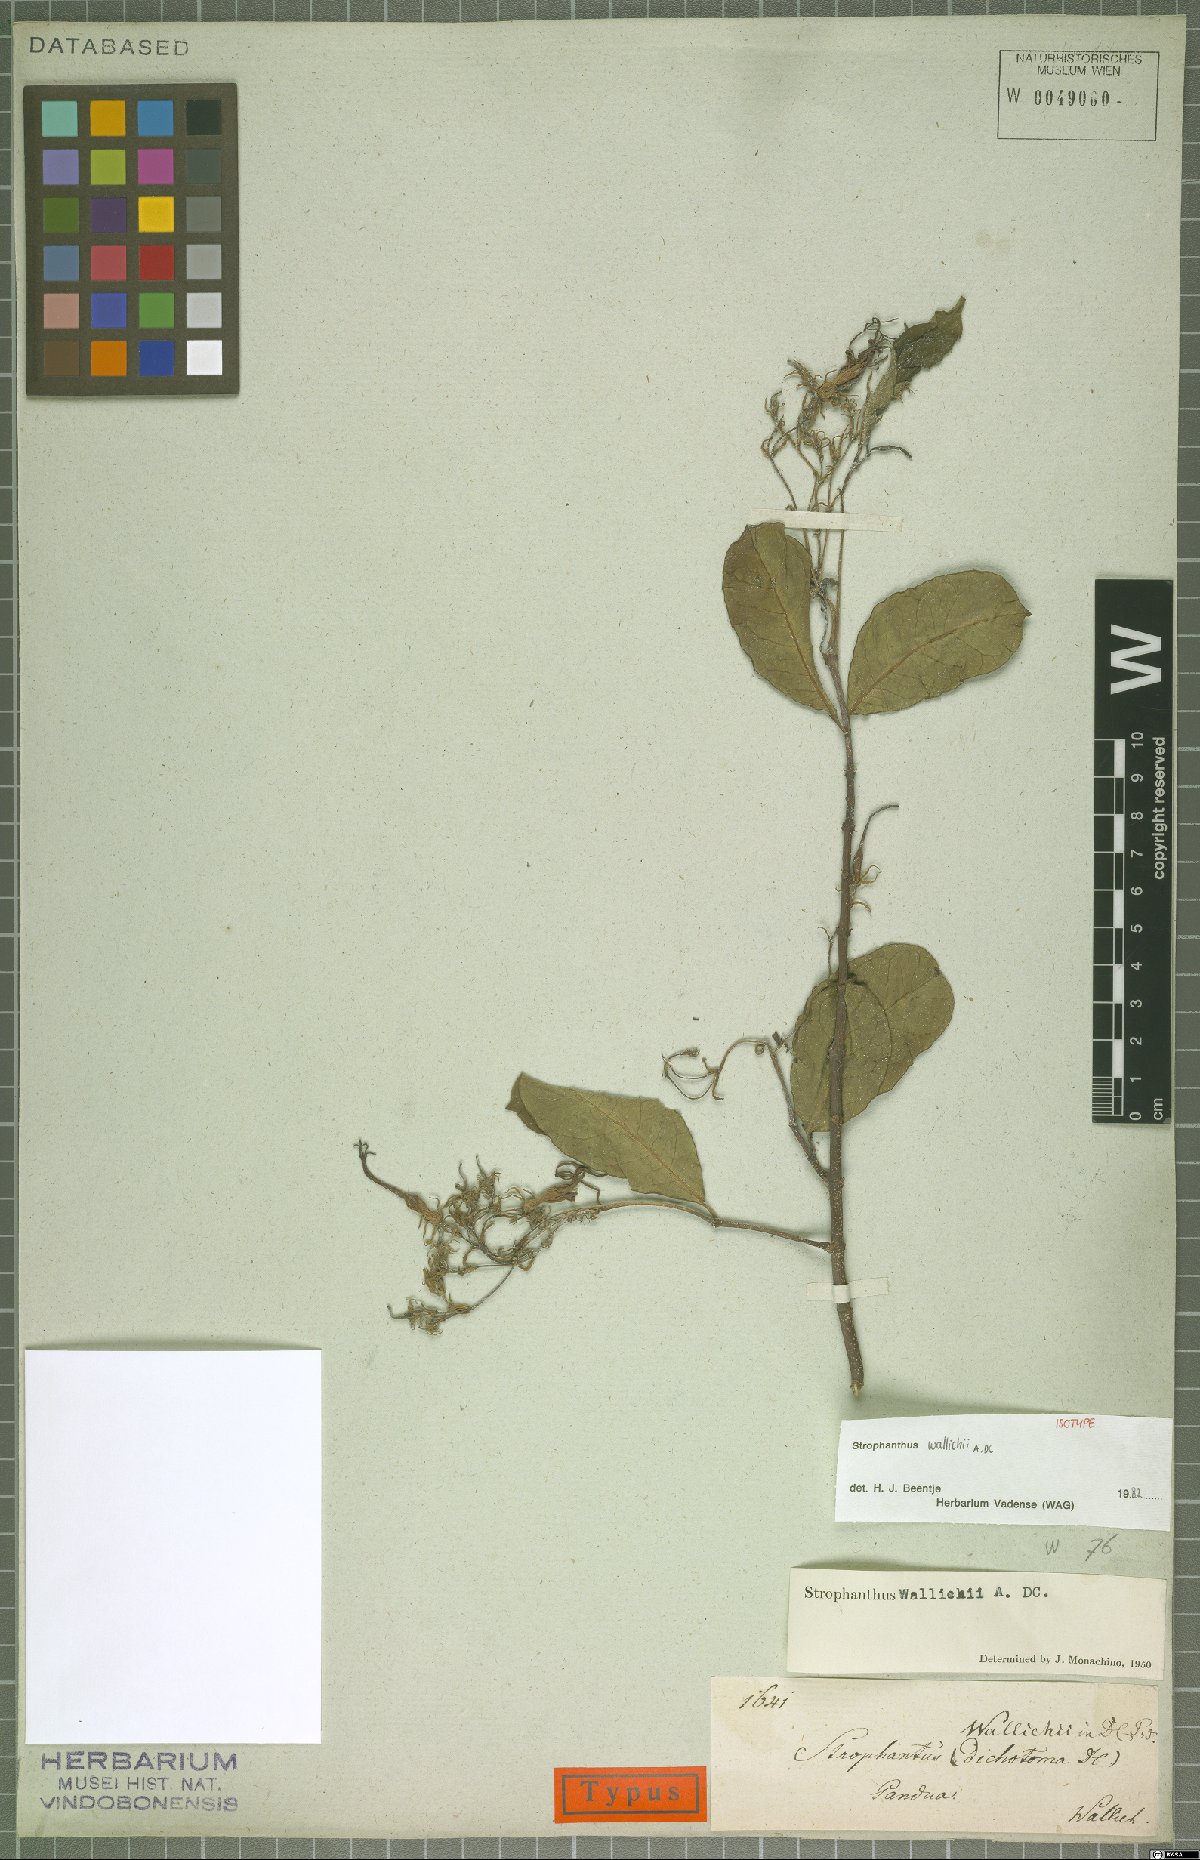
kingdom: Plantae
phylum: Tracheophyta
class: Magnoliopsida
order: Gentianales
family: Apocynaceae
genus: Strophanthus
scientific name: Strophanthus wallichii
